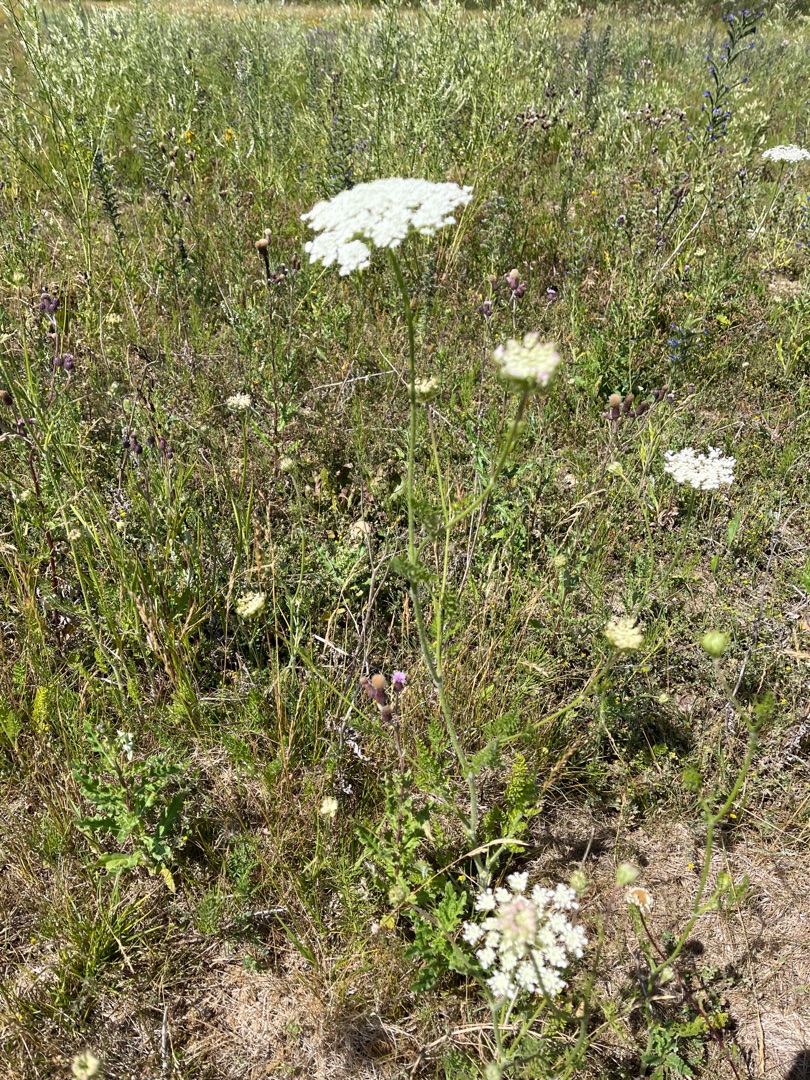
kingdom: Plantae
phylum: Tracheophyta
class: Magnoliopsida
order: Apiales
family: Apiaceae
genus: Daucus
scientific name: Daucus carota
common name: Gulerod
